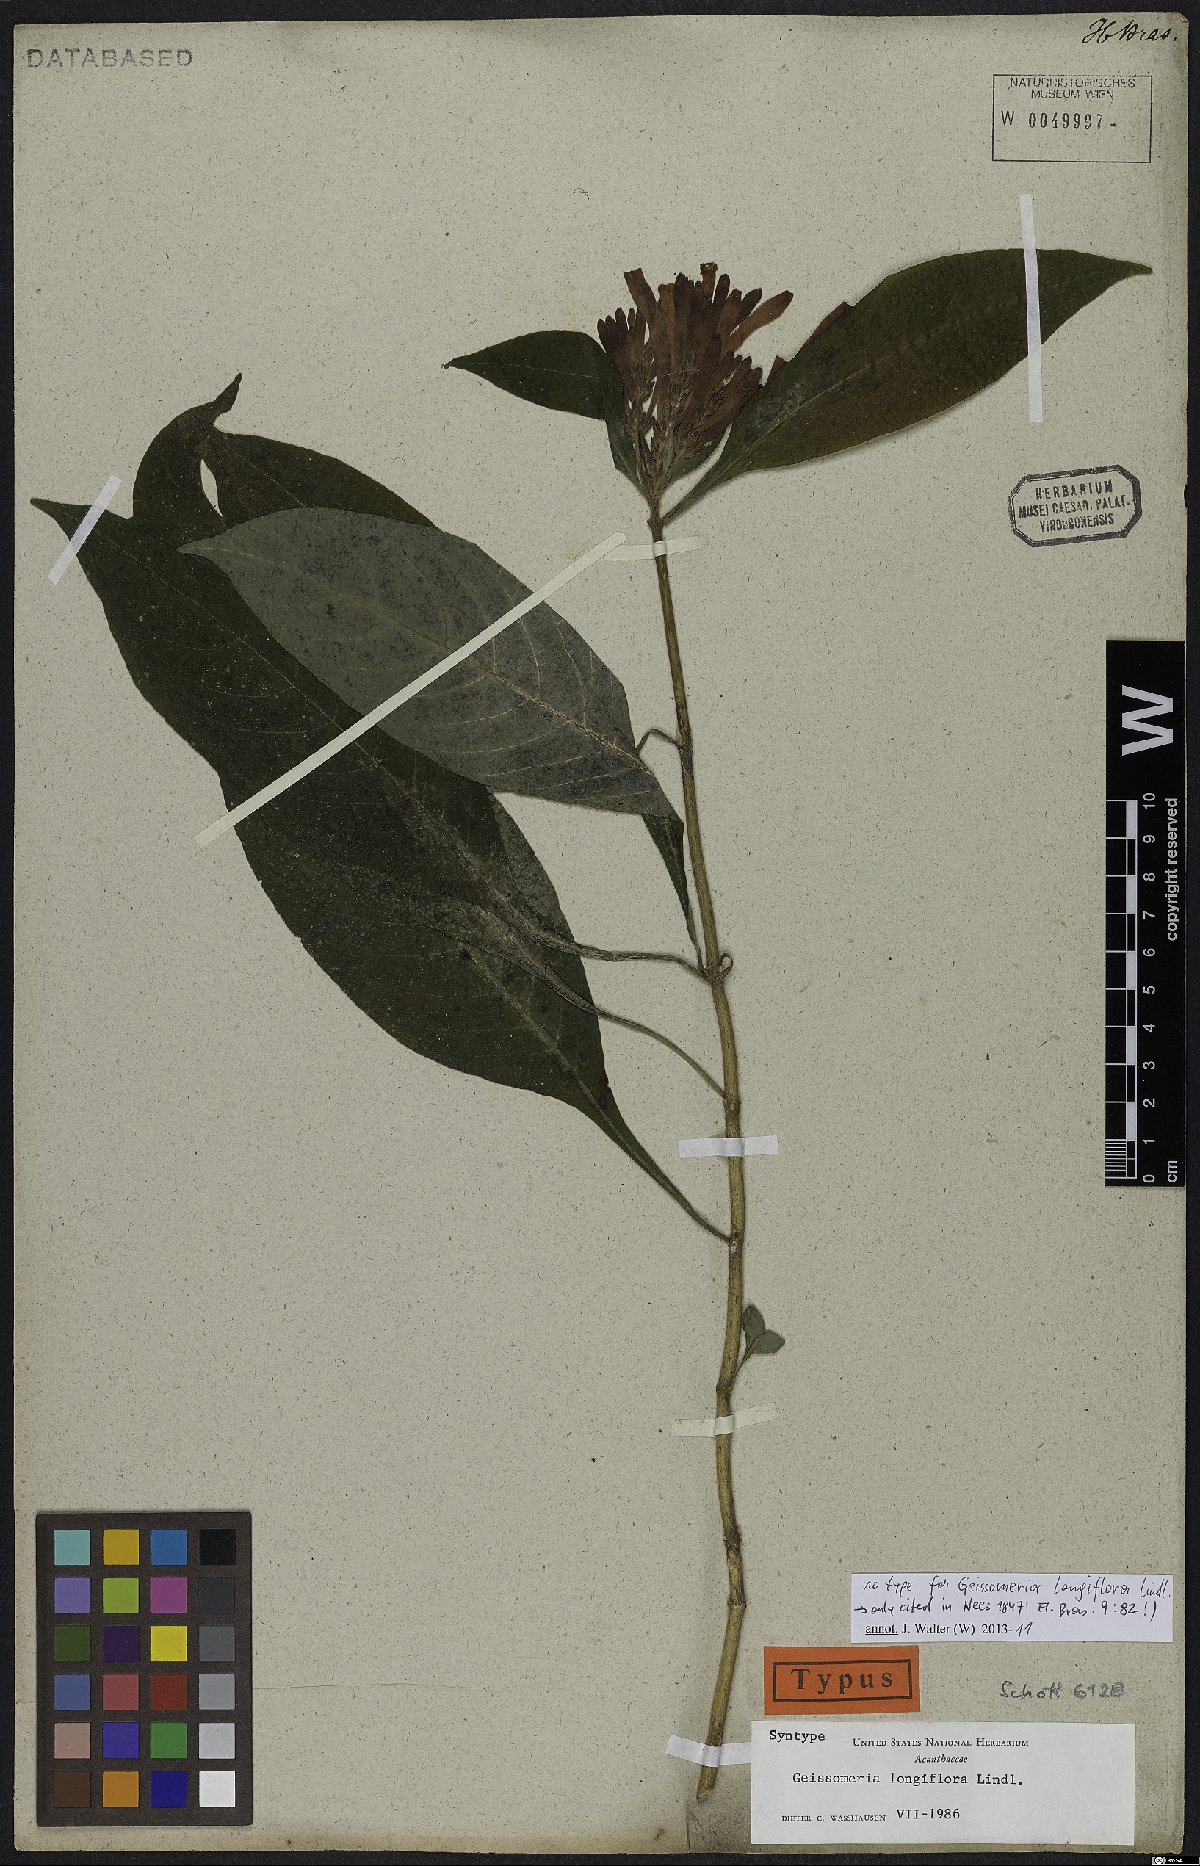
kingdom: Plantae
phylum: Tracheophyta
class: Magnoliopsida
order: Lamiales
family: Acanthaceae
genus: Aphelandra
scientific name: Aphelandra longiflora
